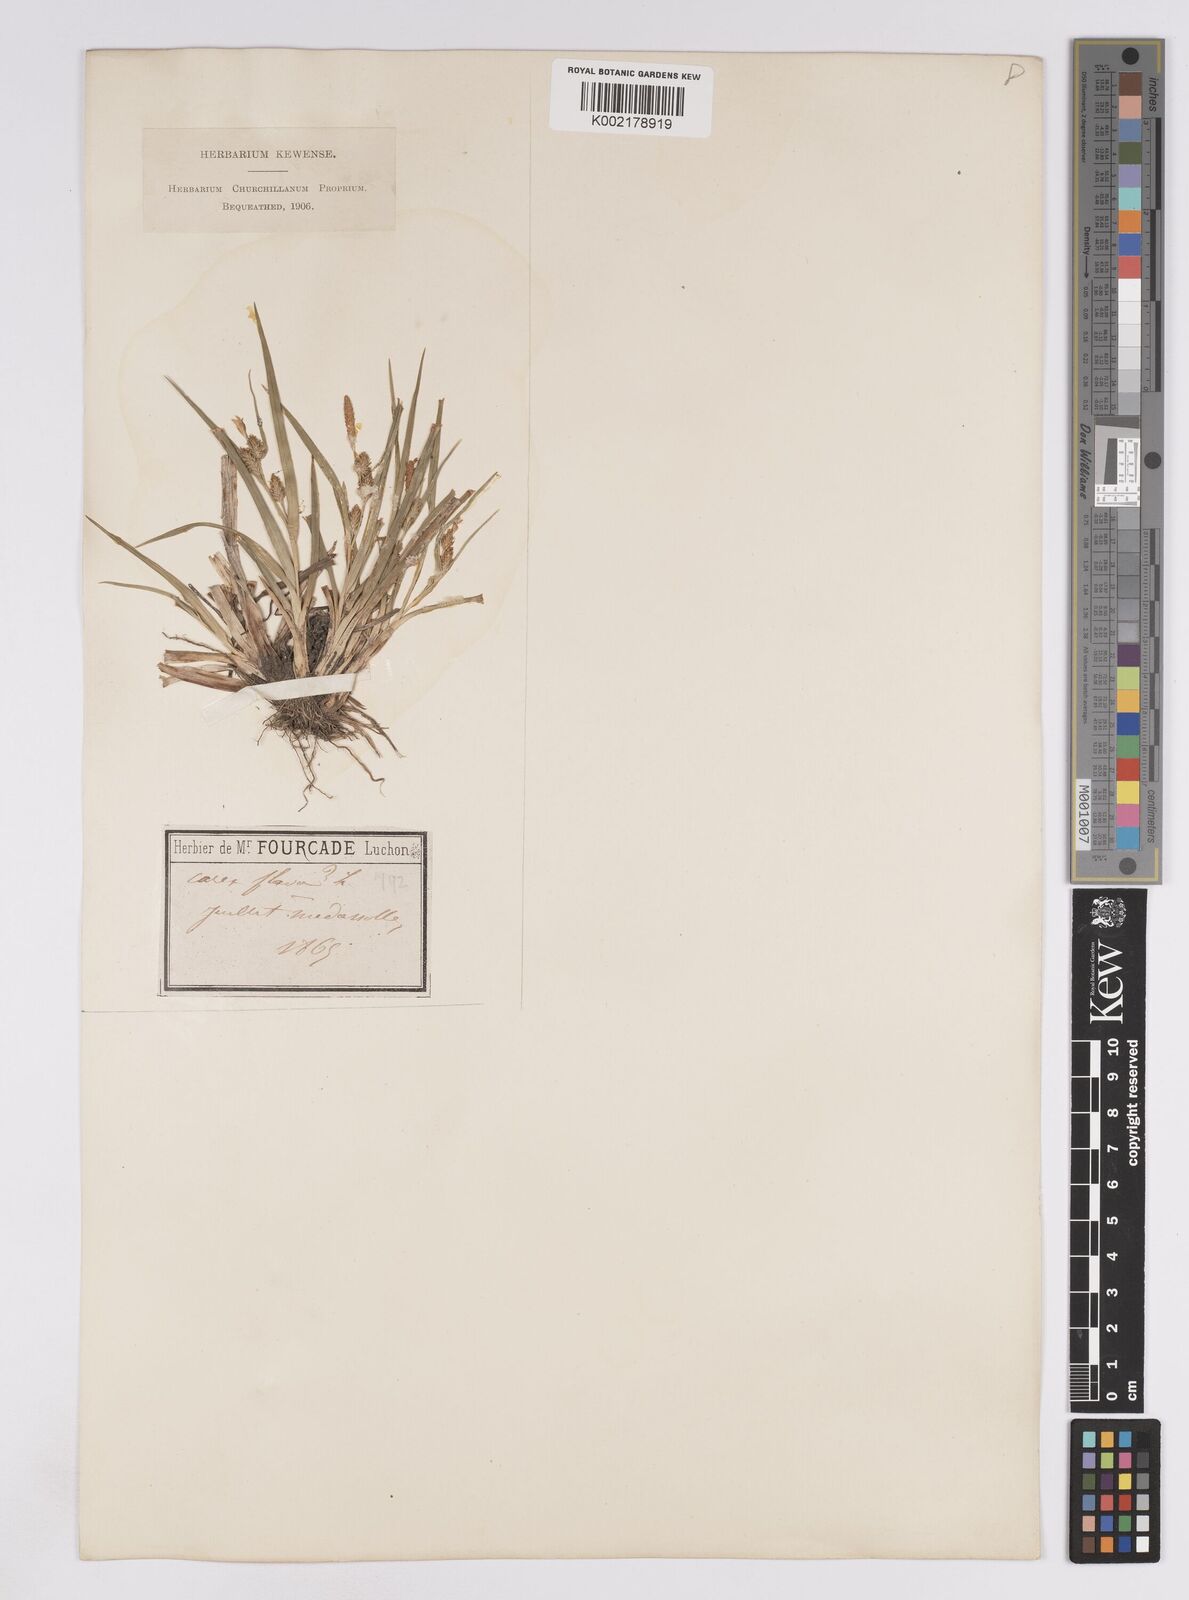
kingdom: Plantae
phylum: Tracheophyta
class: Liliopsida
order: Poales
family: Cyperaceae
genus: Carex
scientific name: Carex lepidocarpa
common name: Long-stalked yellow-sedge
